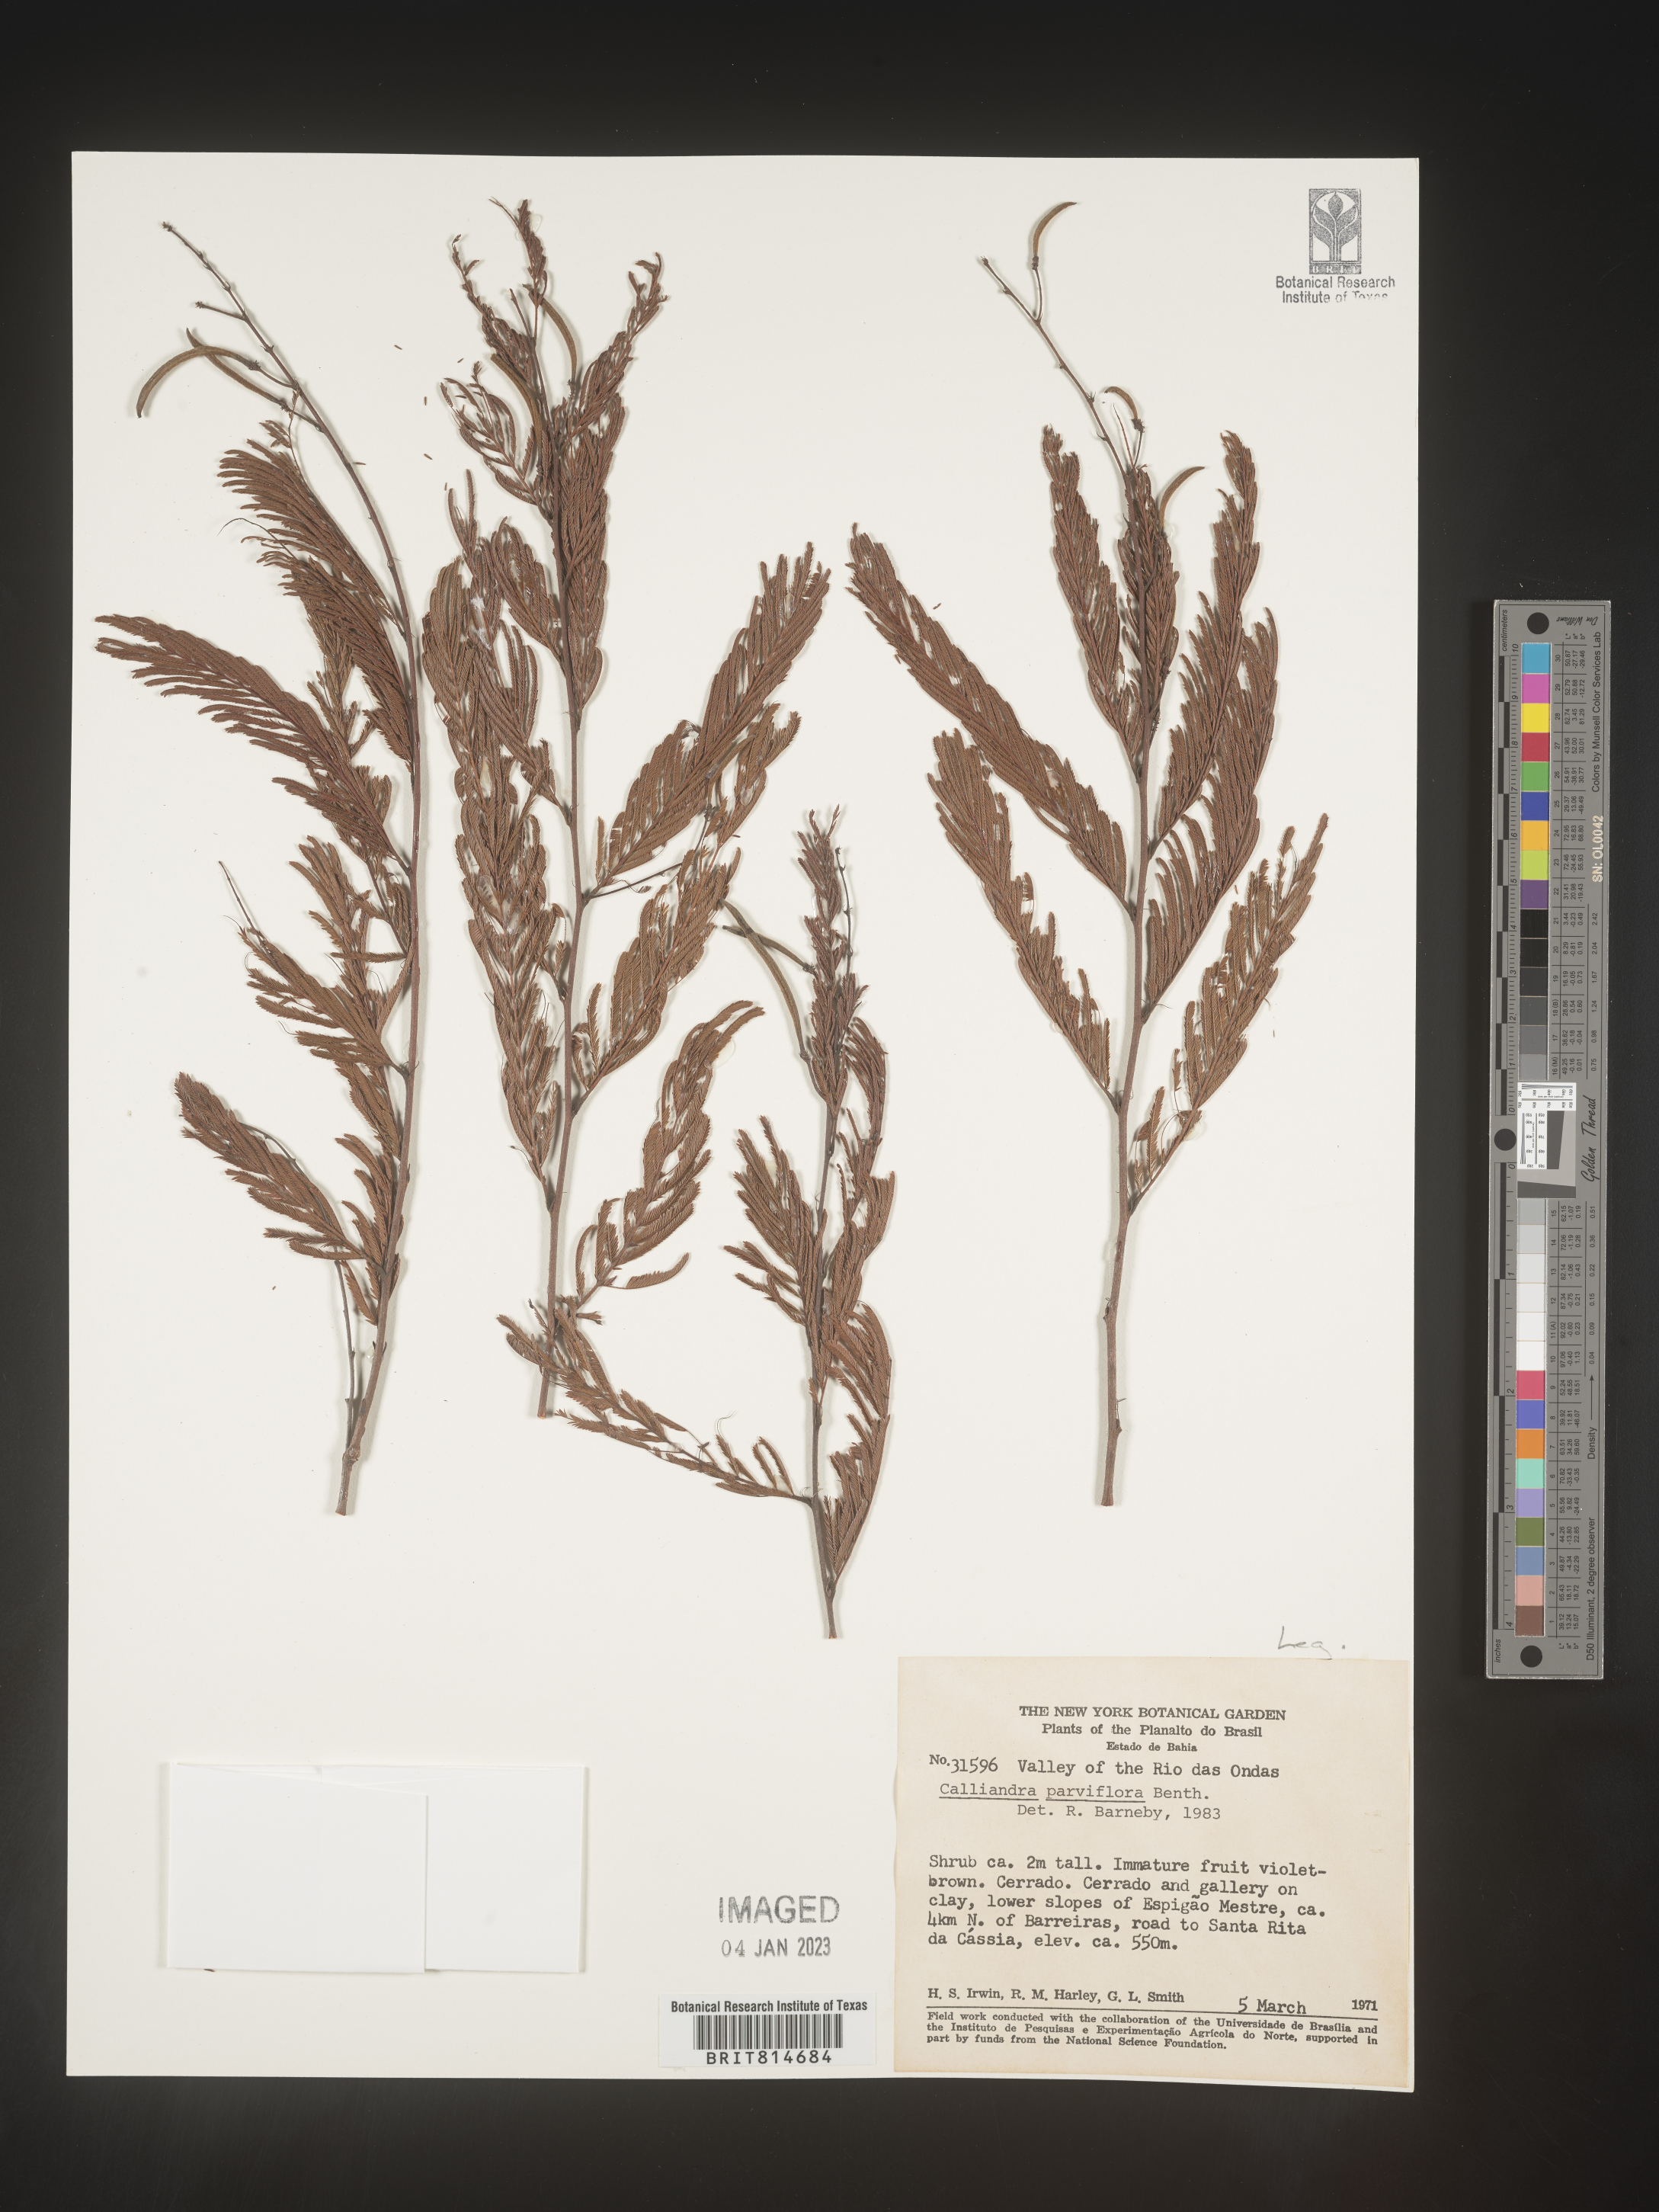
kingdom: Plantae
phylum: Tracheophyta
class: Magnoliopsida
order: Fabales
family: Fabaceae
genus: Calliandra
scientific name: Calliandra
